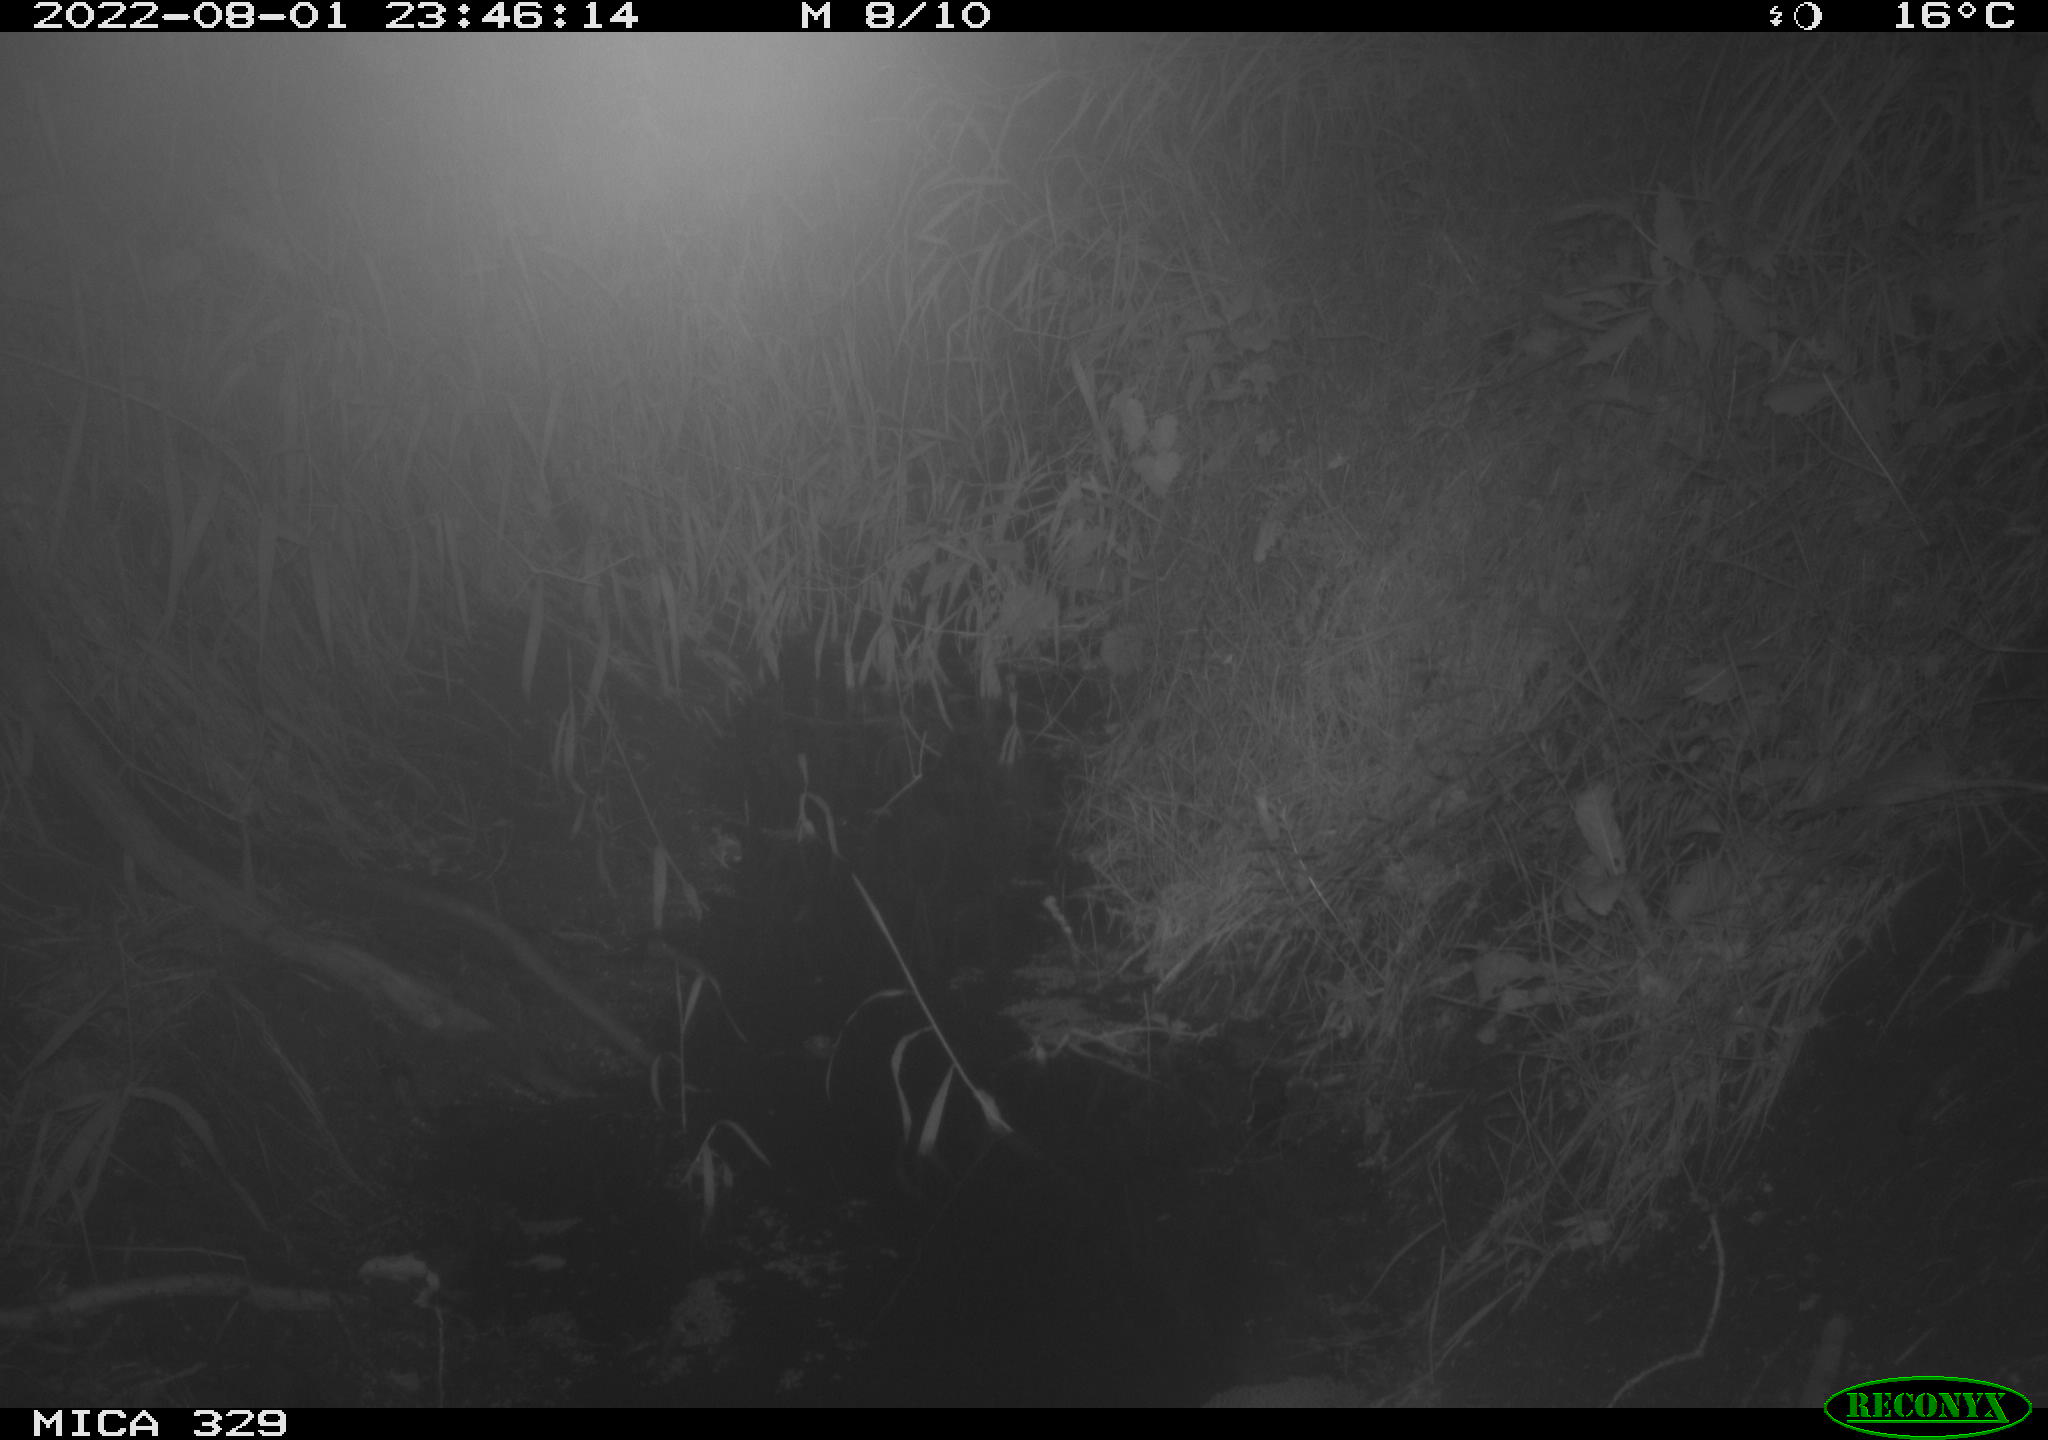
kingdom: Animalia
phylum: Chordata
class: Mammalia
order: Rodentia
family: Muridae
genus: Rattus
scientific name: Rattus norvegicus
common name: Brown rat
